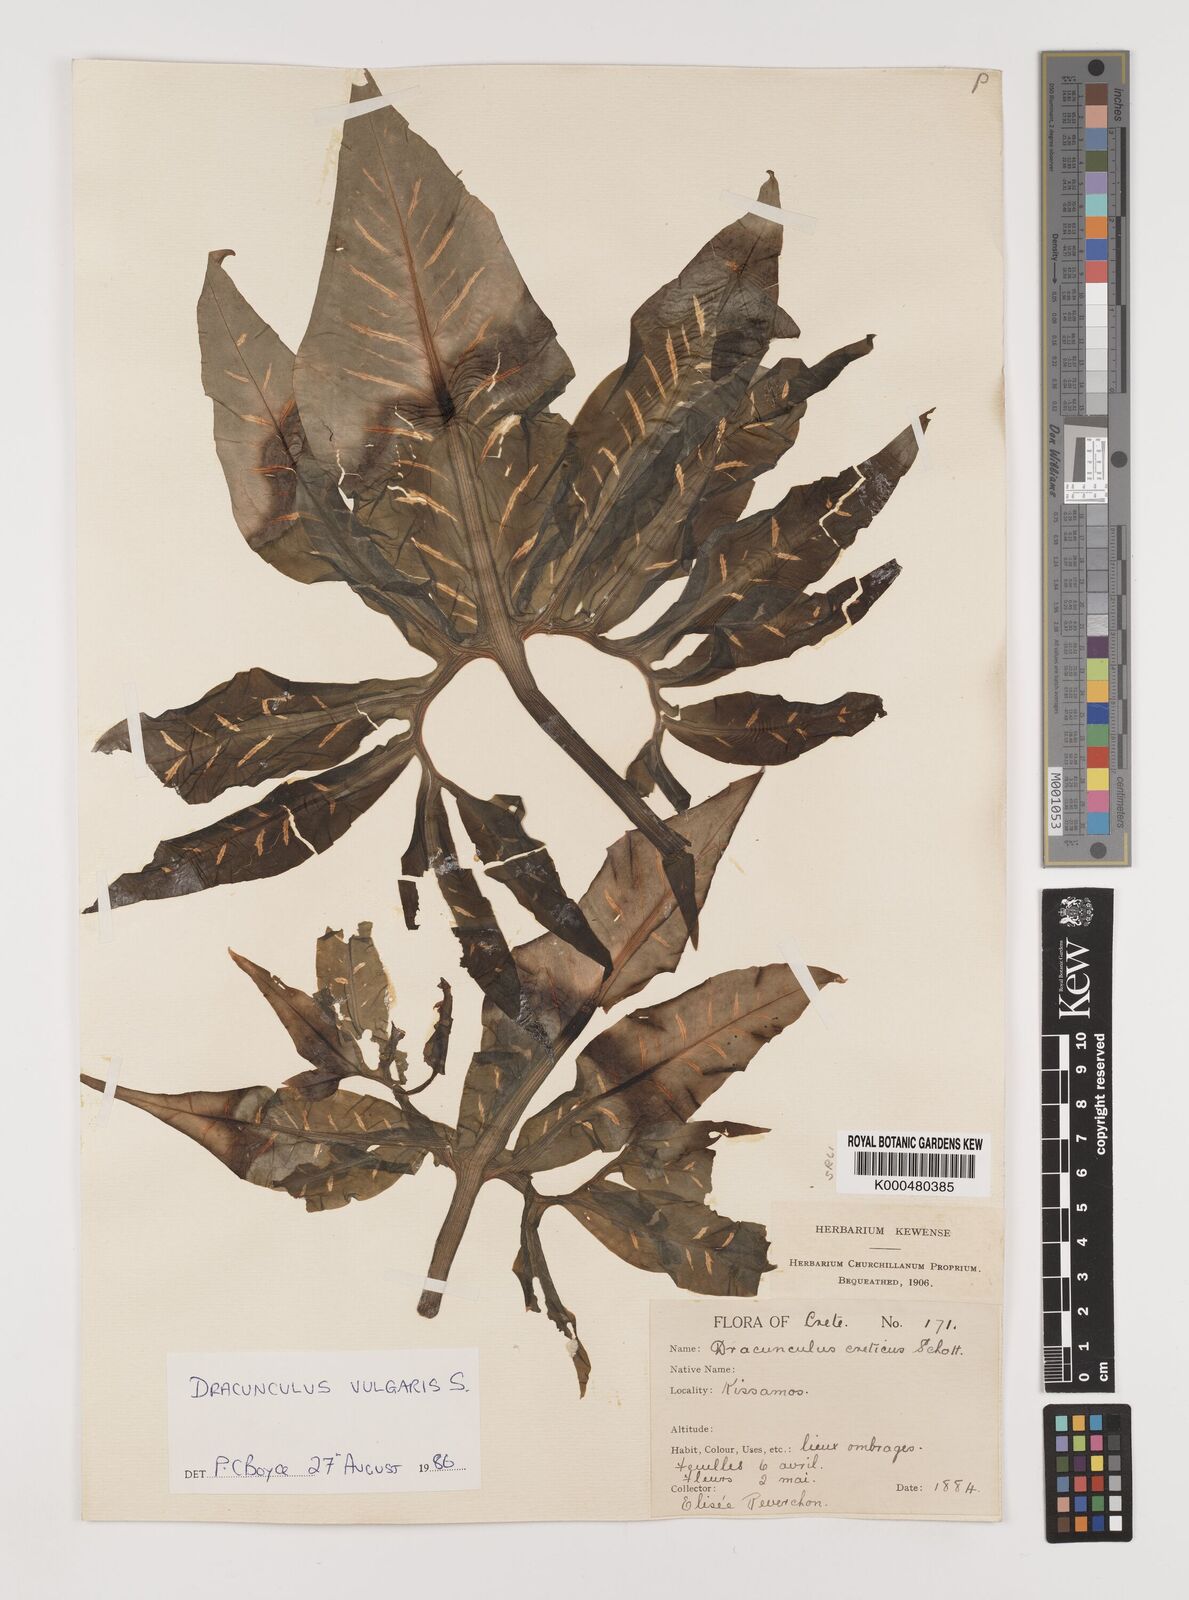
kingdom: Plantae
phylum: Tracheophyta
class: Liliopsida
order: Alismatales
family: Araceae
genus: Dracunculus
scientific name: Dracunculus vulgaris
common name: Dragon arum
